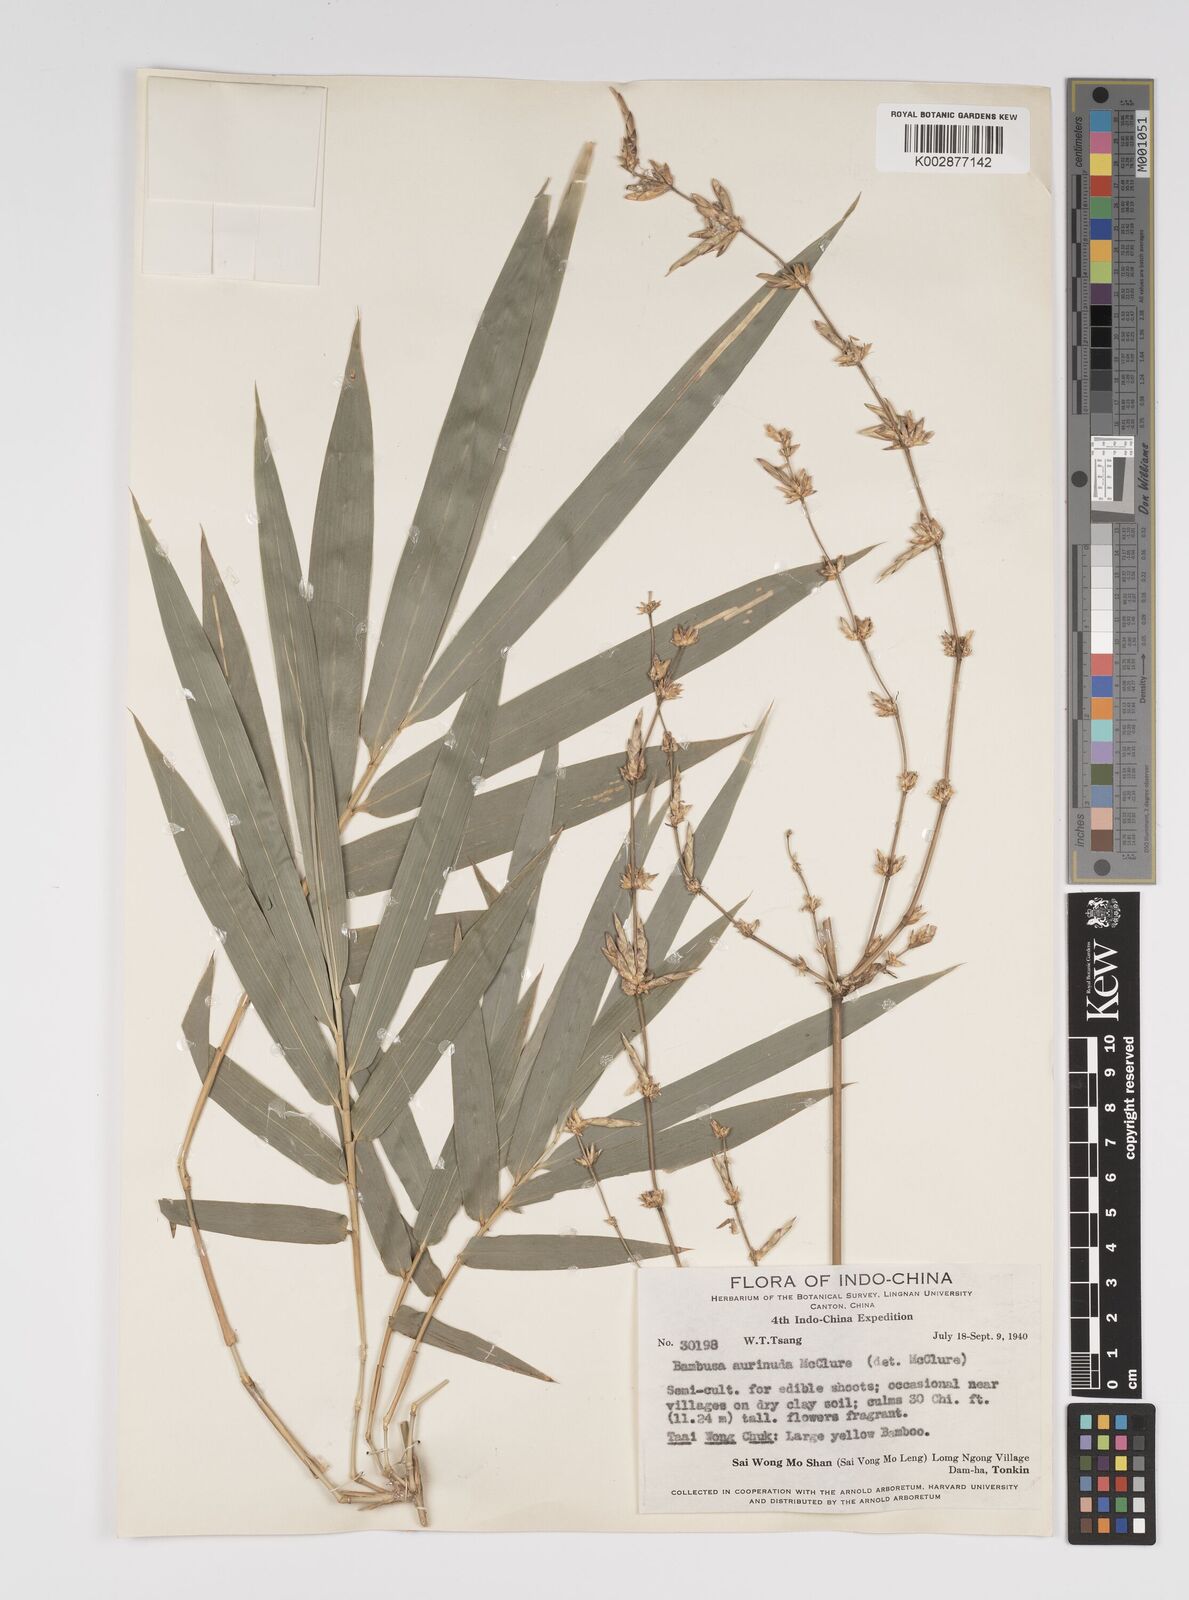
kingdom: Plantae
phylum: Tracheophyta
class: Liliopsida
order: Poales
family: Poaceae
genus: Bambusa
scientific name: Bambusa aurinuda
